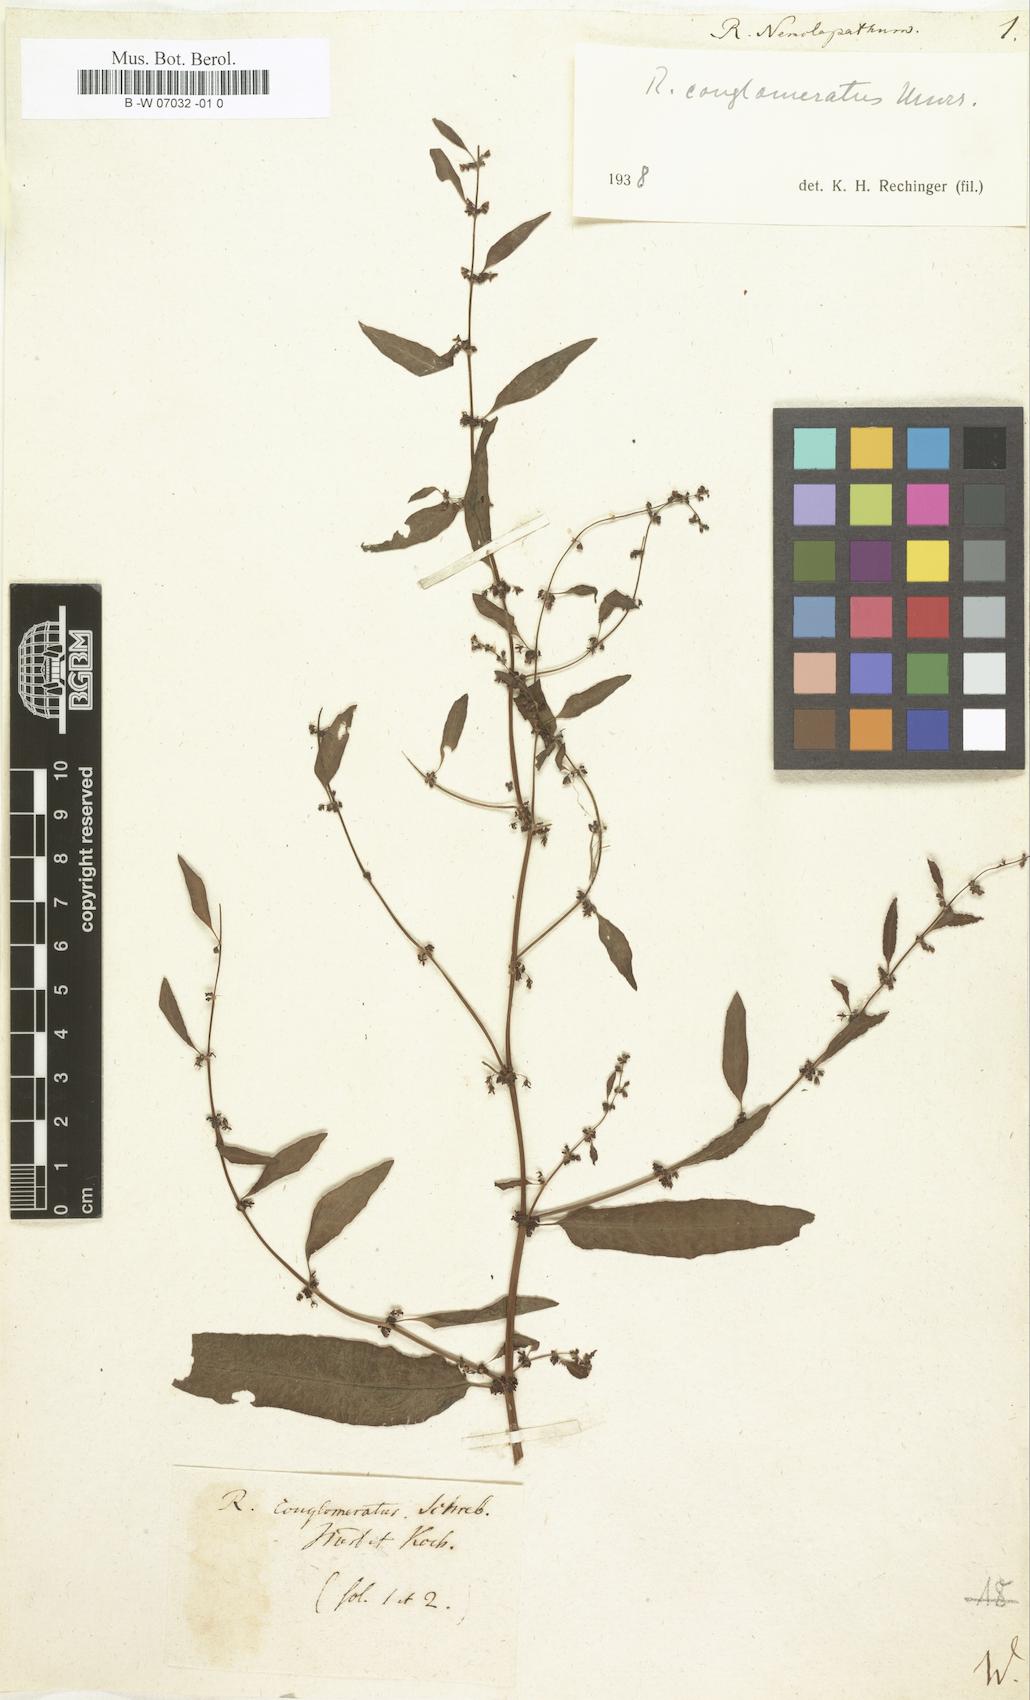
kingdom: Plantae
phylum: Tracheophyta
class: Magnoliopsida
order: Caryophyllales
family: Polygonaceae
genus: Rumex
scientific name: Rumex
